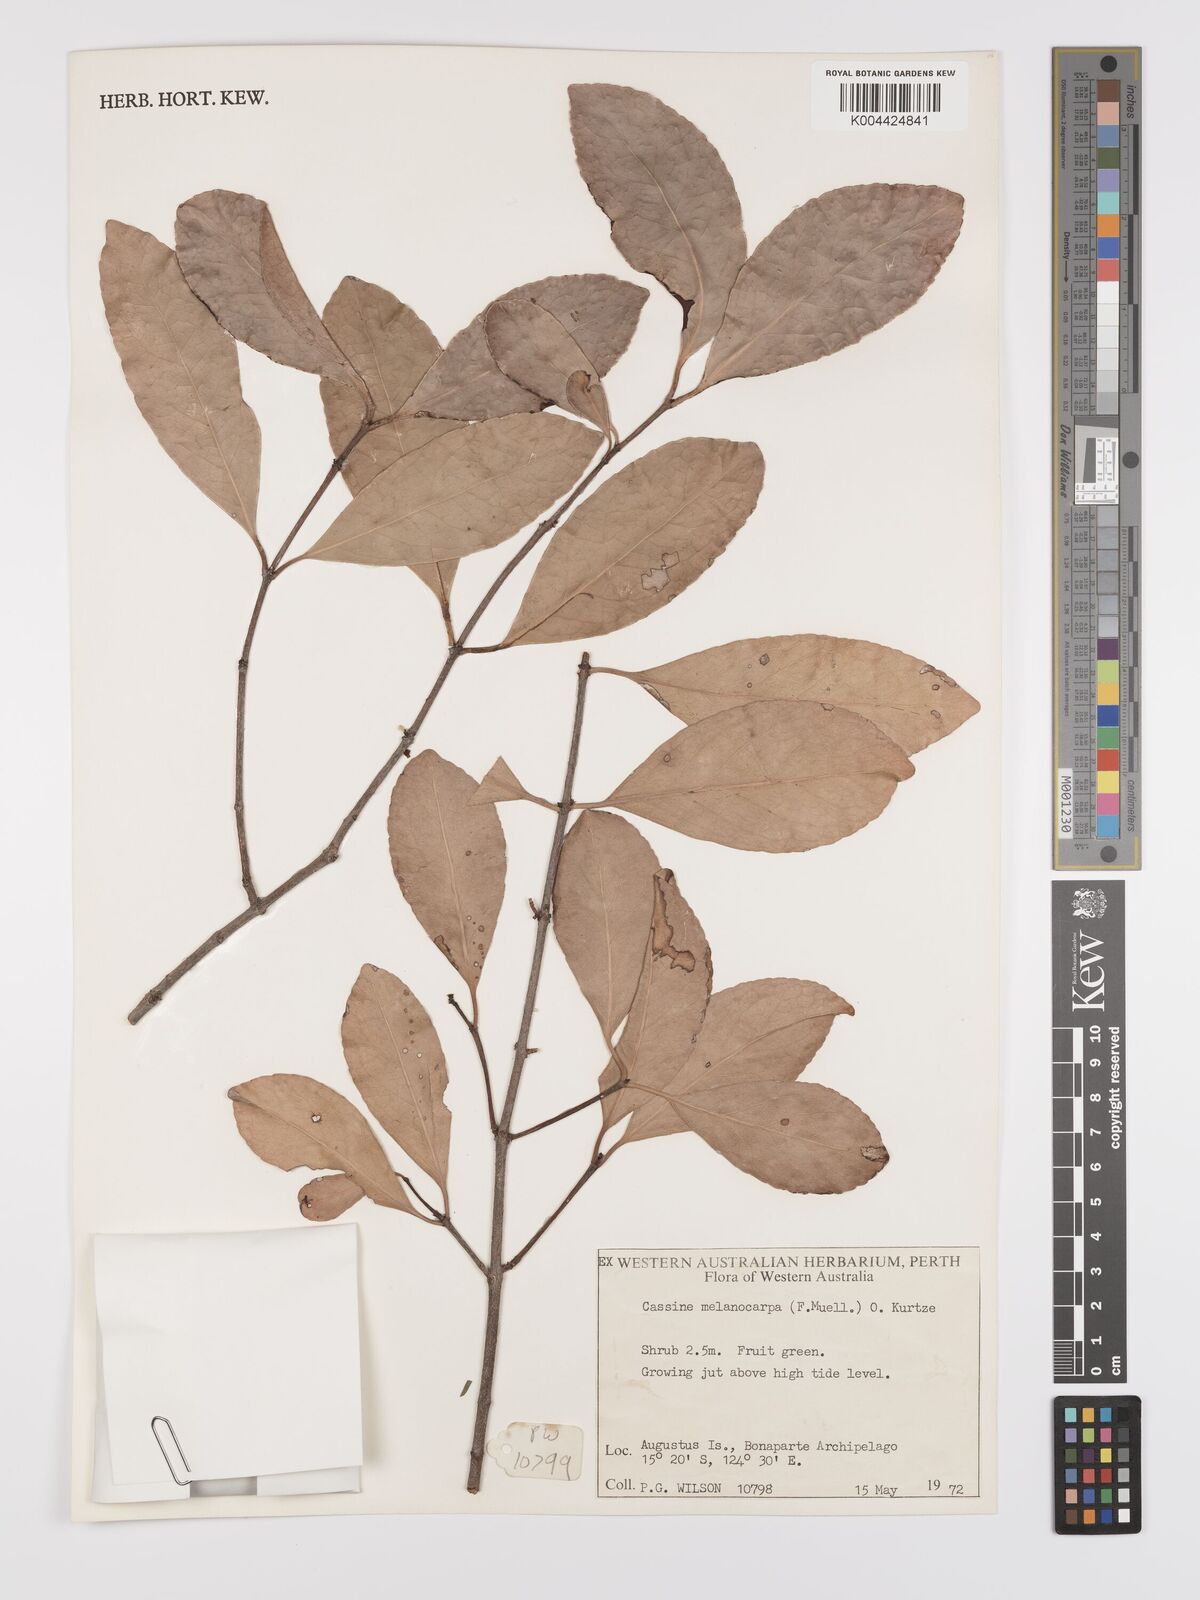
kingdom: Plantae
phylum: Tracheophyta
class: Magnoliopsida
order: Celastrales
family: Celastraceae
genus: Elaeodendron
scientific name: Elaeodendron melanocarpum
